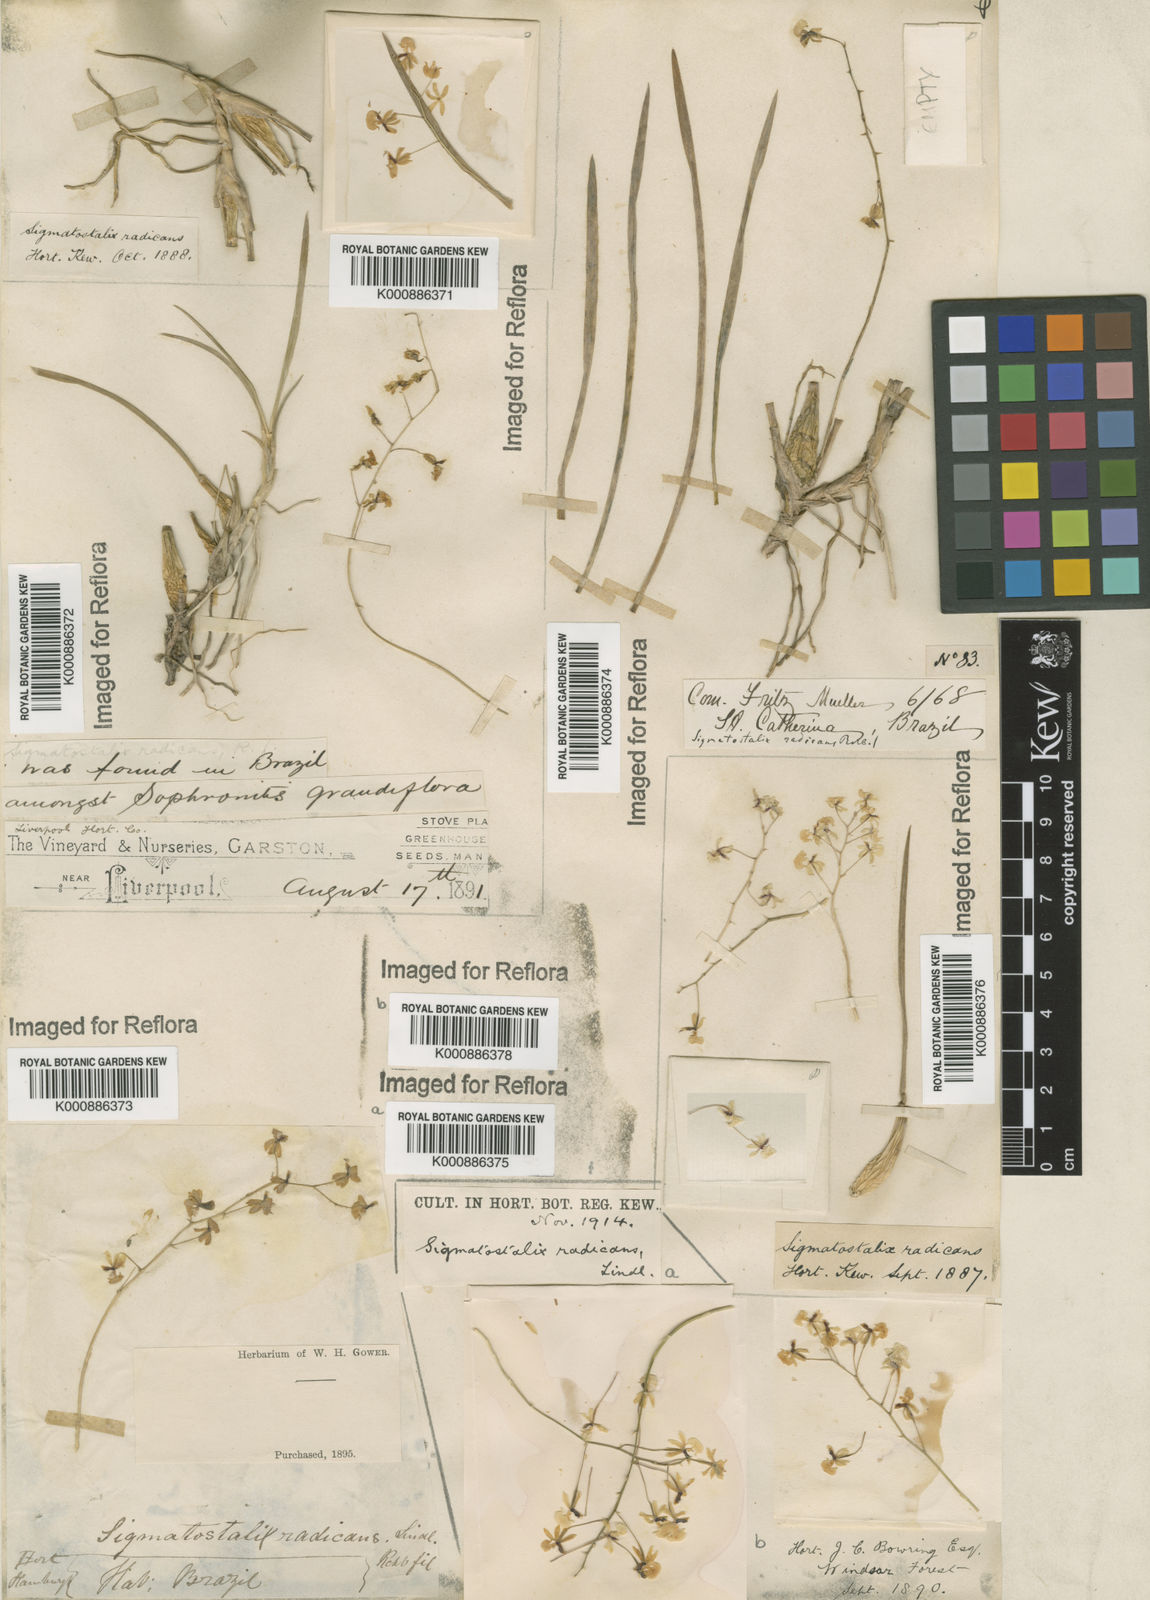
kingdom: Plantae
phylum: Tracheophyta
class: Liliopsida
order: Asparagales
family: Orchidaceae
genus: Gomesa
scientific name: Gomesa radicans
